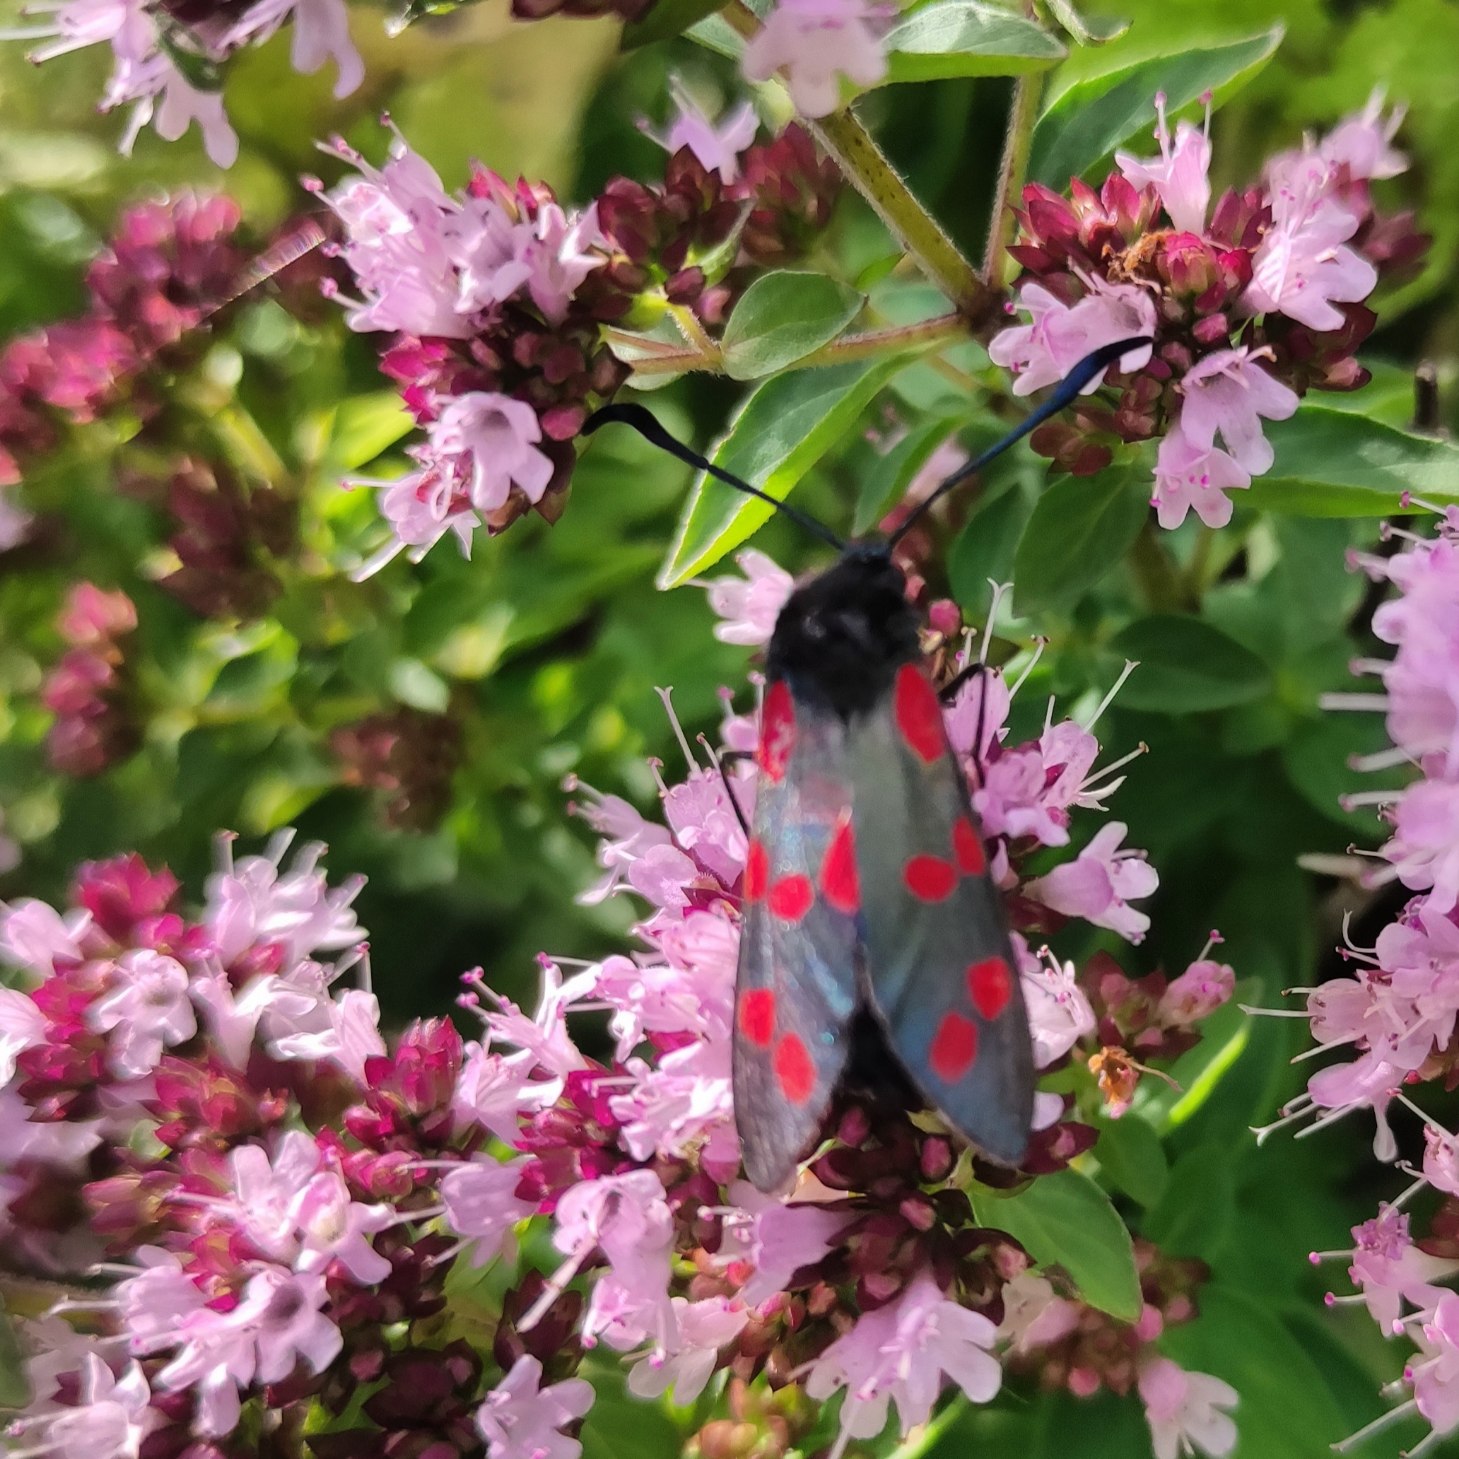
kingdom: Animalia
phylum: Arthropoda
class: Insecta
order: Lepidoptera
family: Zygaenidae
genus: Zygaena
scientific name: Zygaena filipendulae
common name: Seksplettet køllesværmer
